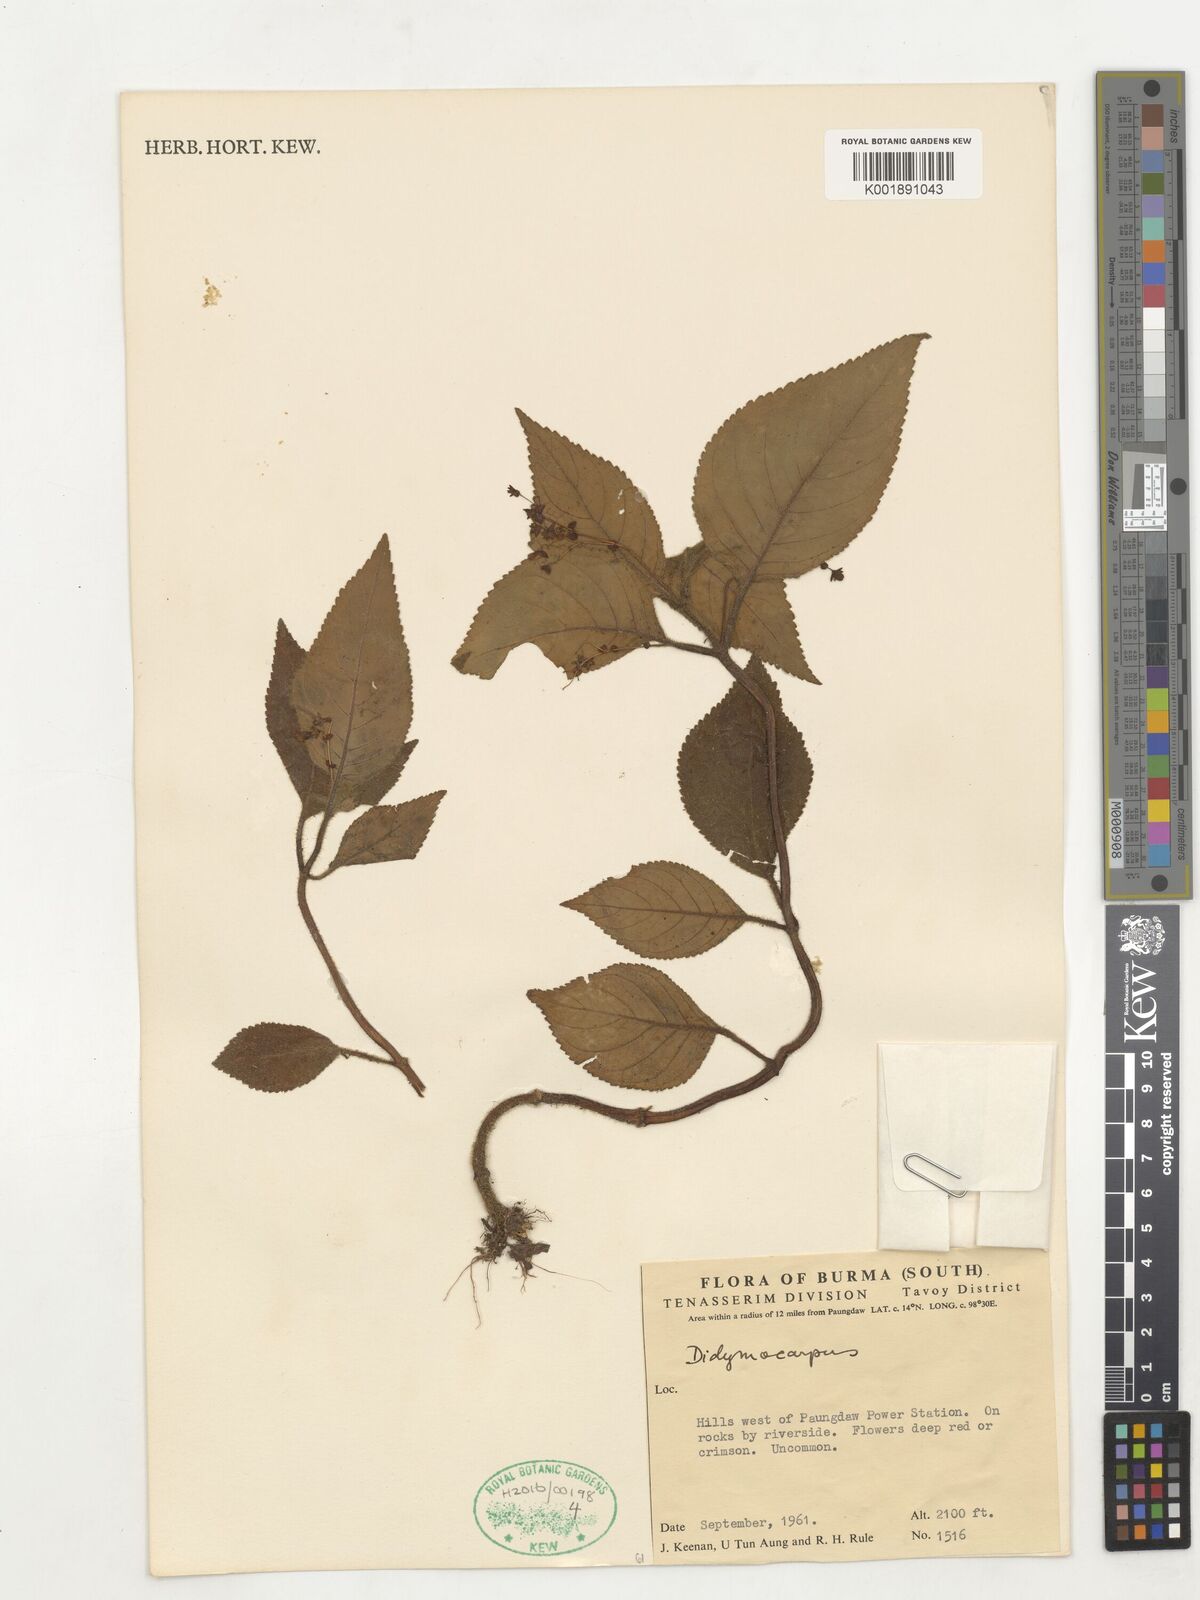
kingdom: Plantae
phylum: Tracheophyta
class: Magnoliopsida
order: Lamiales
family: Gesneriaceae
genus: Didymocarpus
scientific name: Didymocarpus
